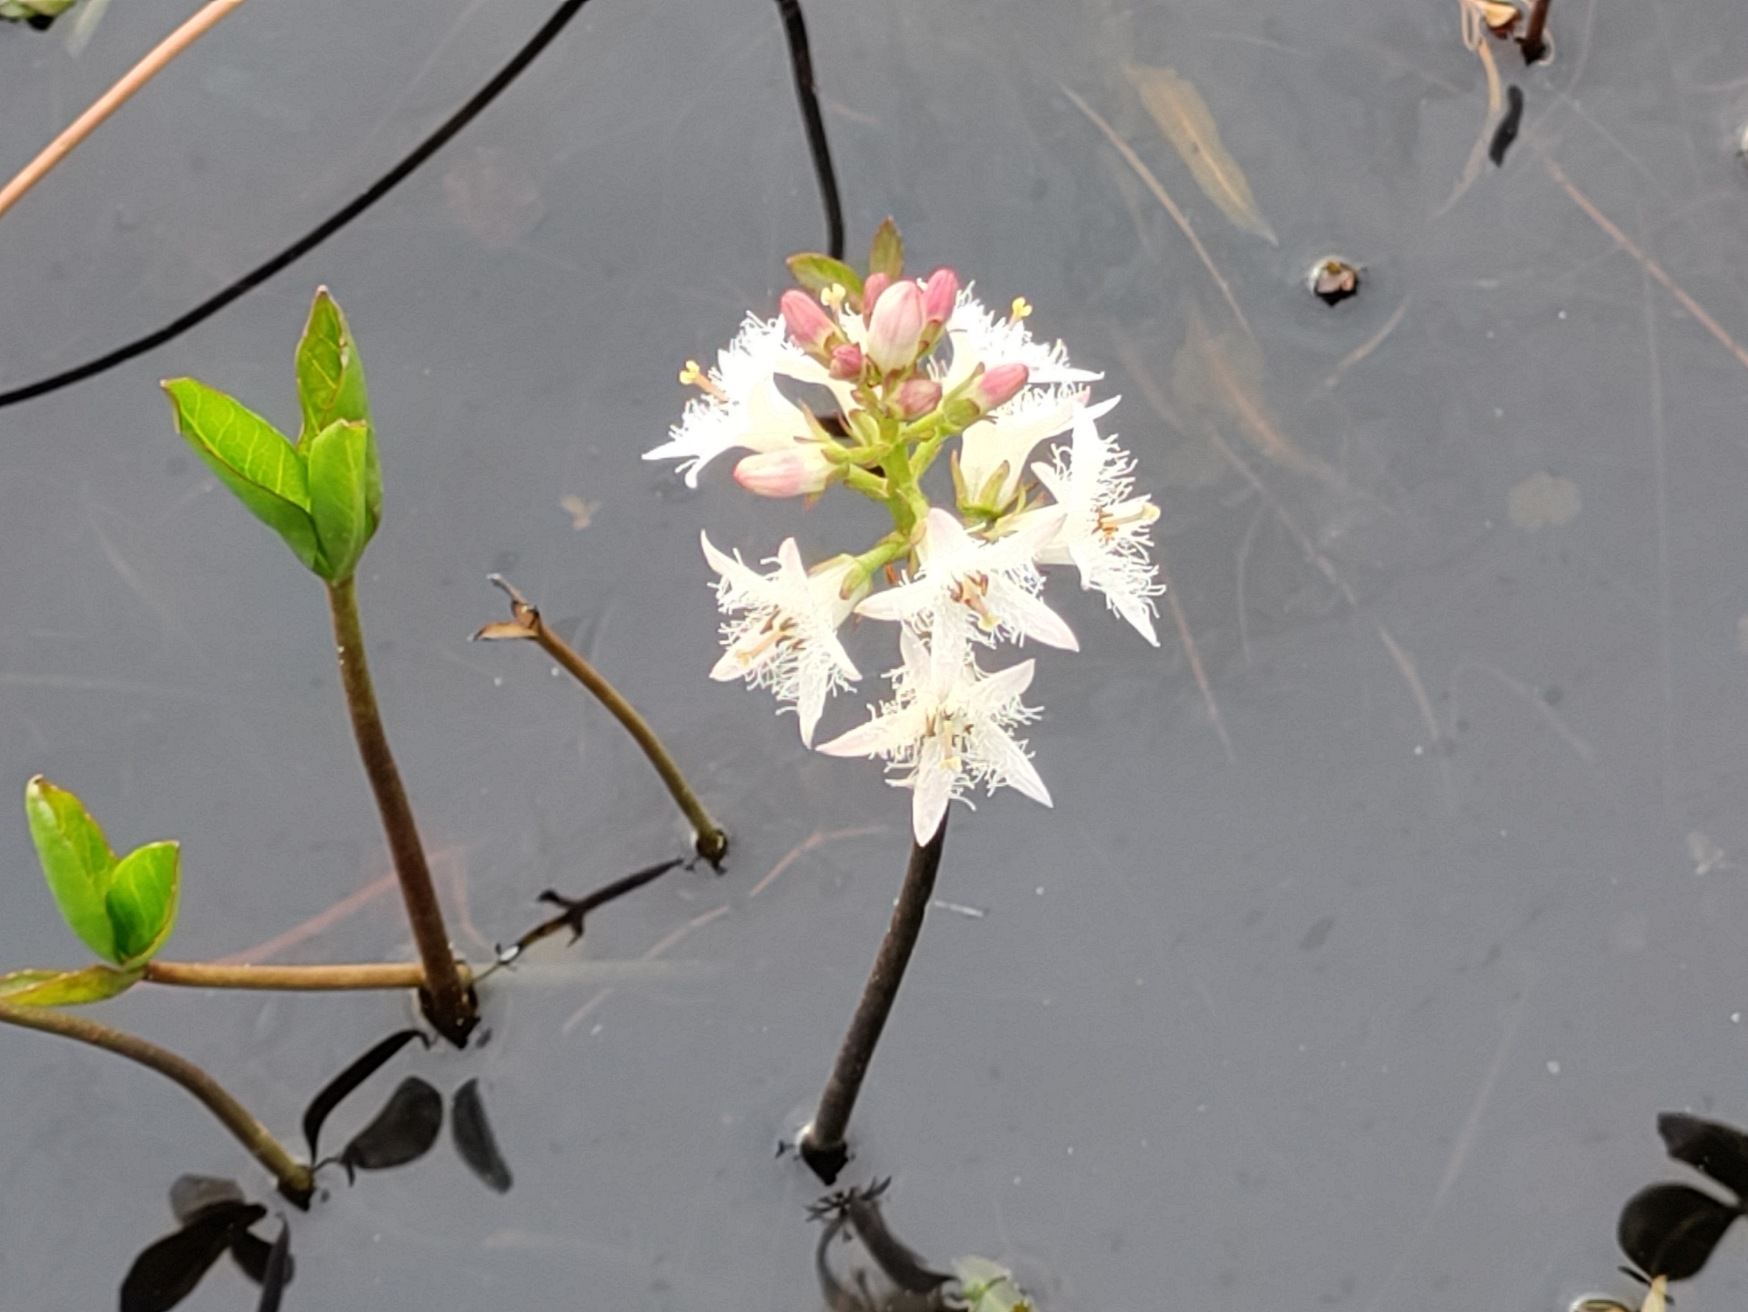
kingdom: Plantae
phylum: Tracheophyta
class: Magnoliopsida
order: Asterales
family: Menyanthaceae
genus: Menyanthes
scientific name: Menyanthes trifoliata
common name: Bukkeblad
